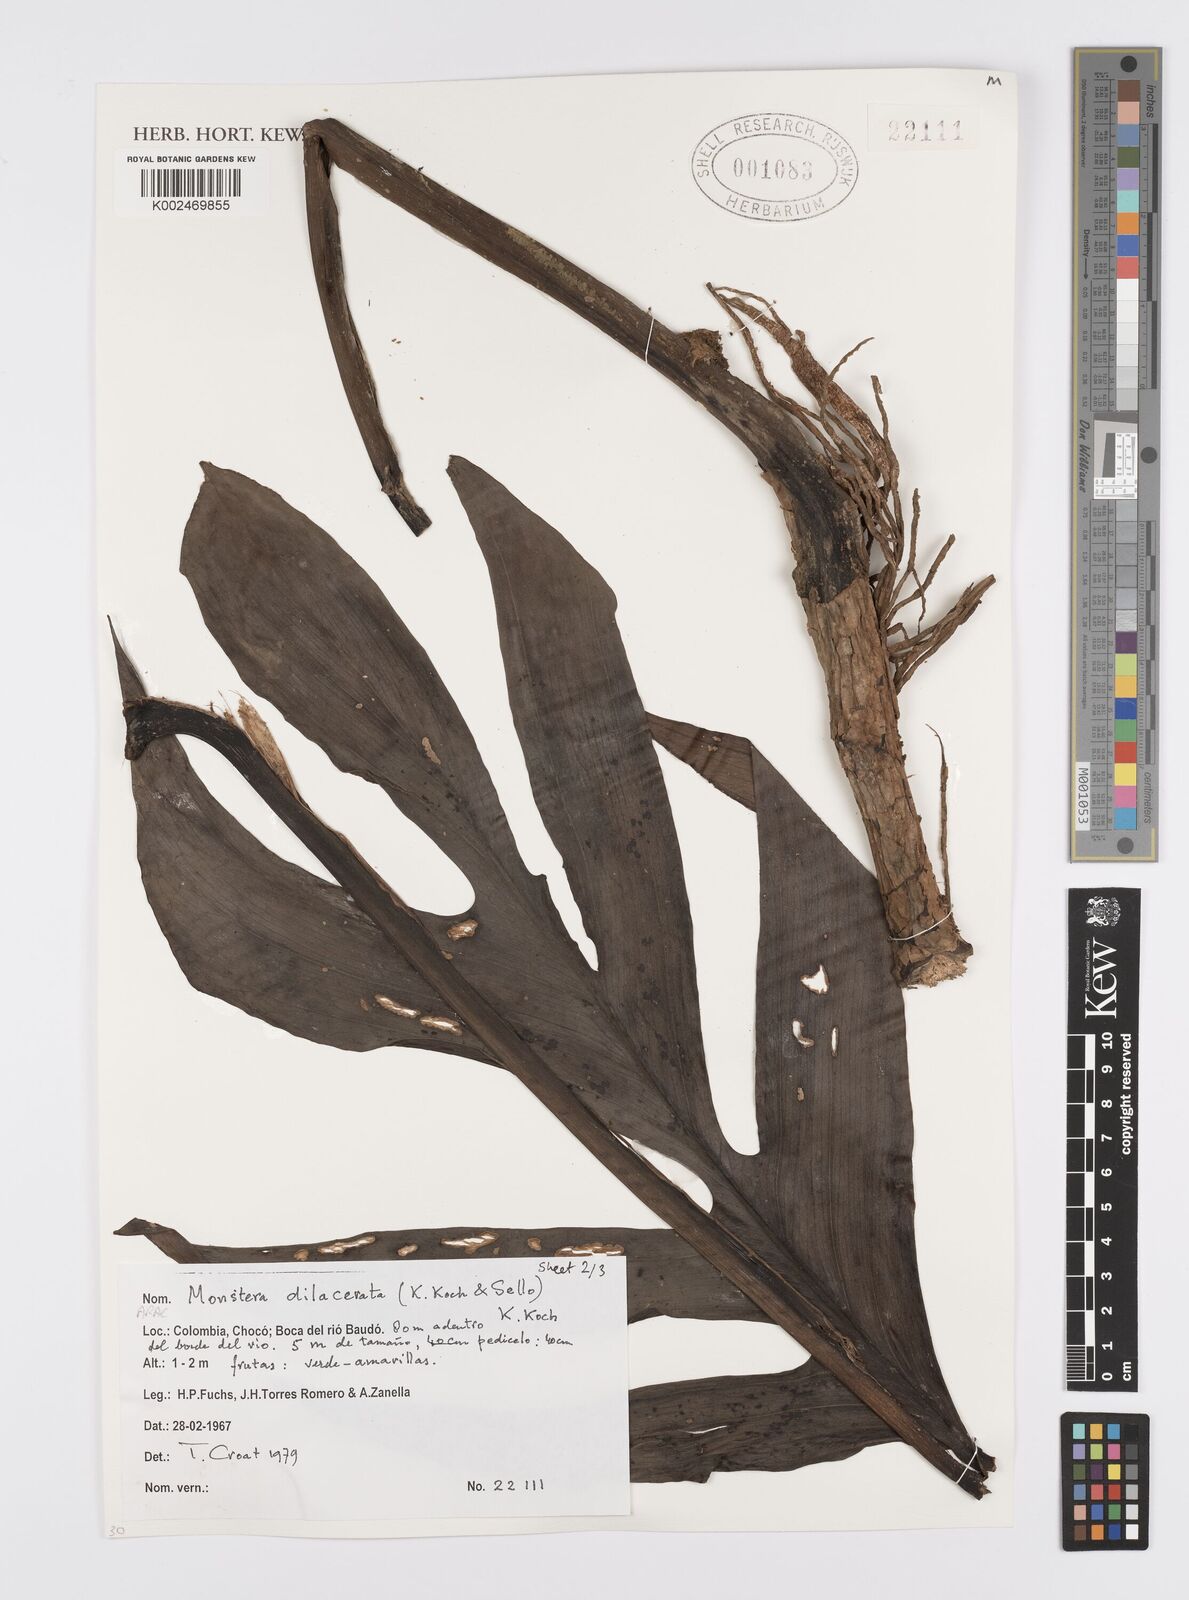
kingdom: Plantae
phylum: Tracheophyta
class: Liliopsida
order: Alismatales
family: Araceae
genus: Monstera
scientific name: Monstera pinnatipartita
